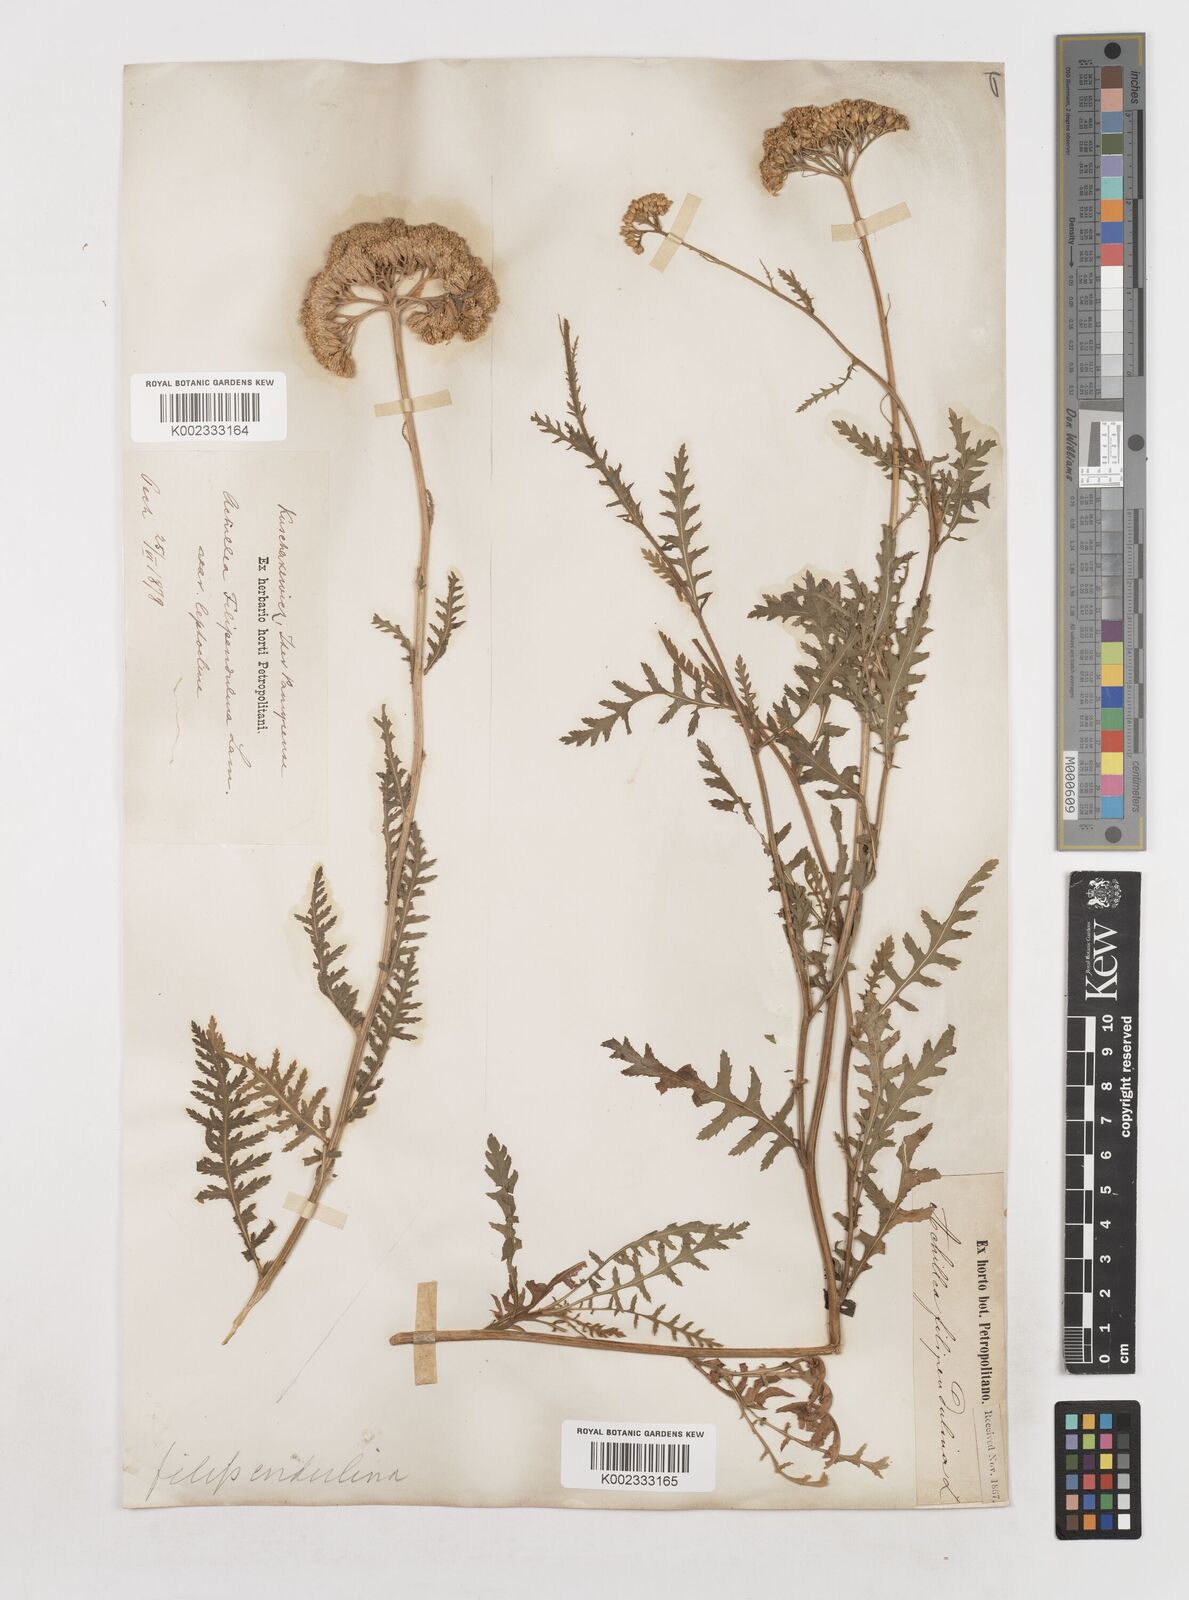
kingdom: Plantae
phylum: Tracheophyta
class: Magnoliopsida
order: Asterales
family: Asteraceae
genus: Achillea
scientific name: Achillea filipendulina
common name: Fernleaf yarrow
